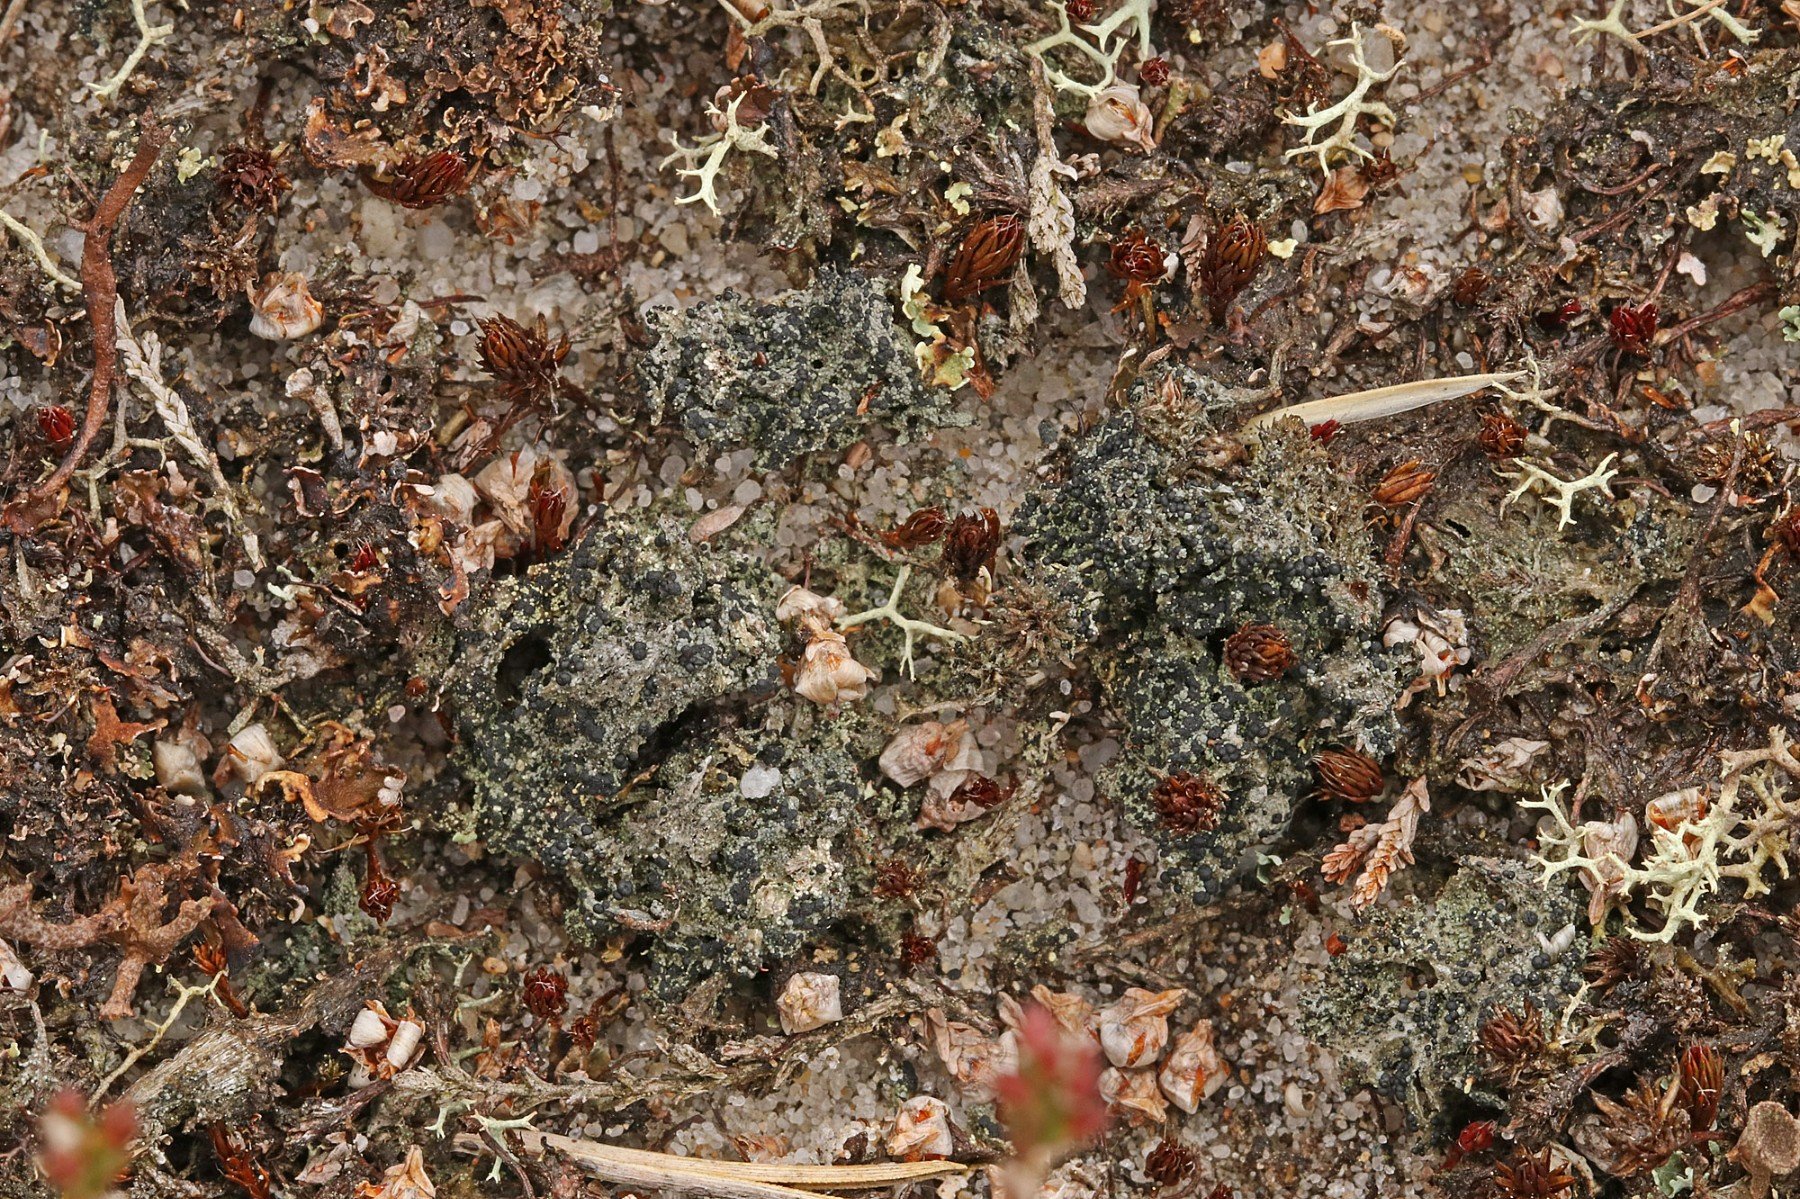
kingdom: Fungi
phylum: Ascomycota
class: Lecanoromycetes
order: Lecanorales
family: Byssolomataceae
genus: Micarea
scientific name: Micarea lignaria
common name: tørve-knaplav
